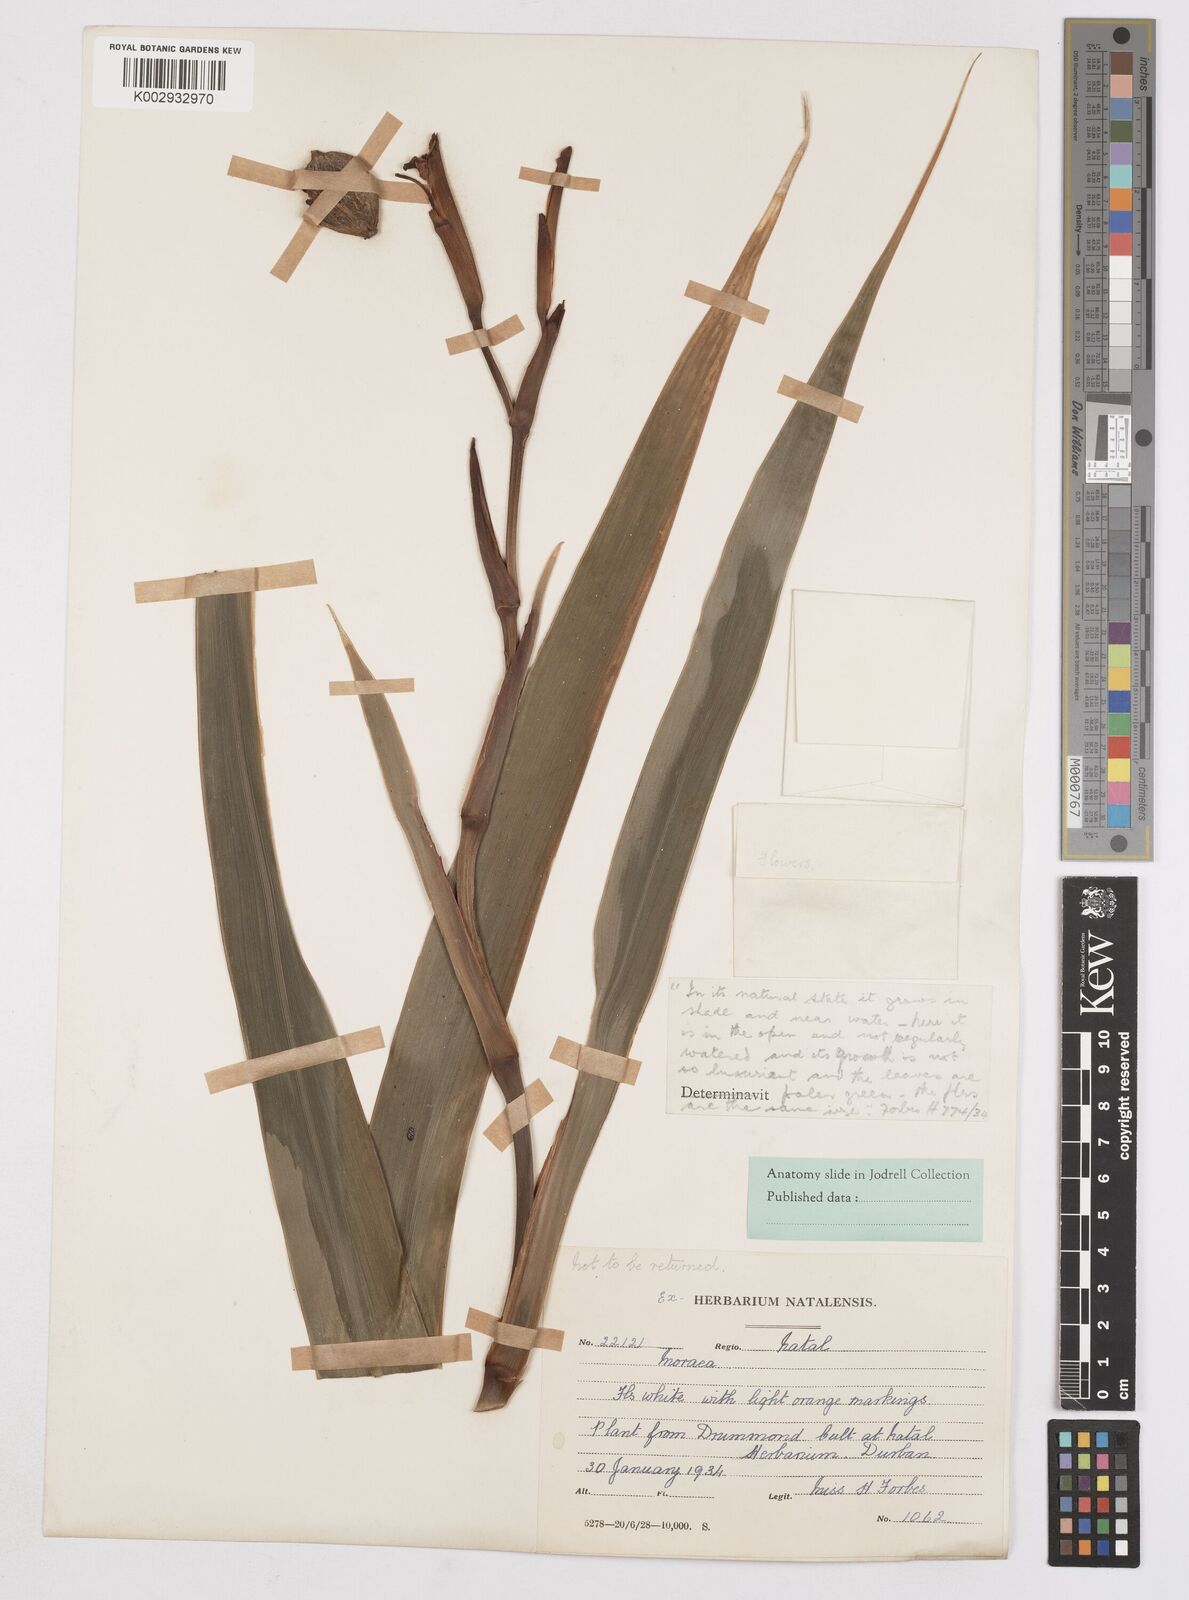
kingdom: Plantae
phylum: Tracheophyta
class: Liliopsida
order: Asparagales
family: Iridaceae
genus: Dietes
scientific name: Dietes butcheriana
